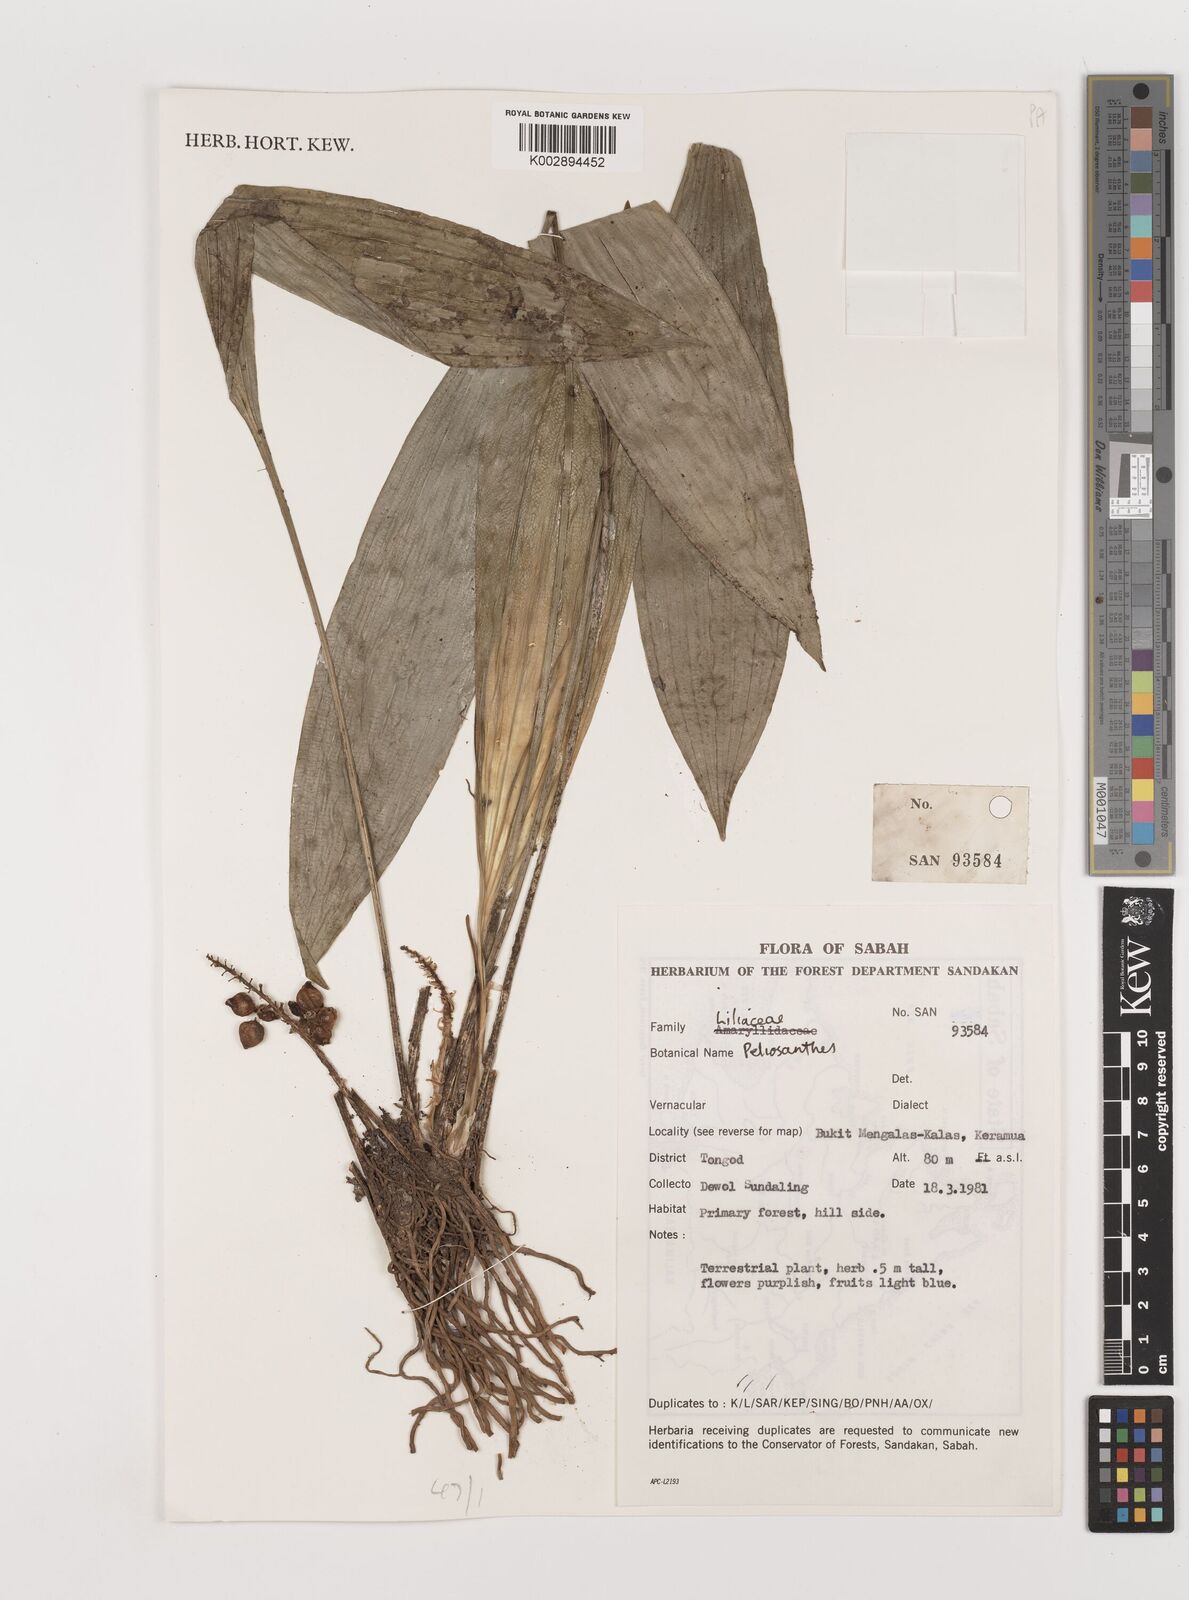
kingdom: Plantae
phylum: Tracheophyta
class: Liliopsida
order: Asparagales
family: Asparagaceae
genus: Peliosanthes
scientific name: Peliosanthes
